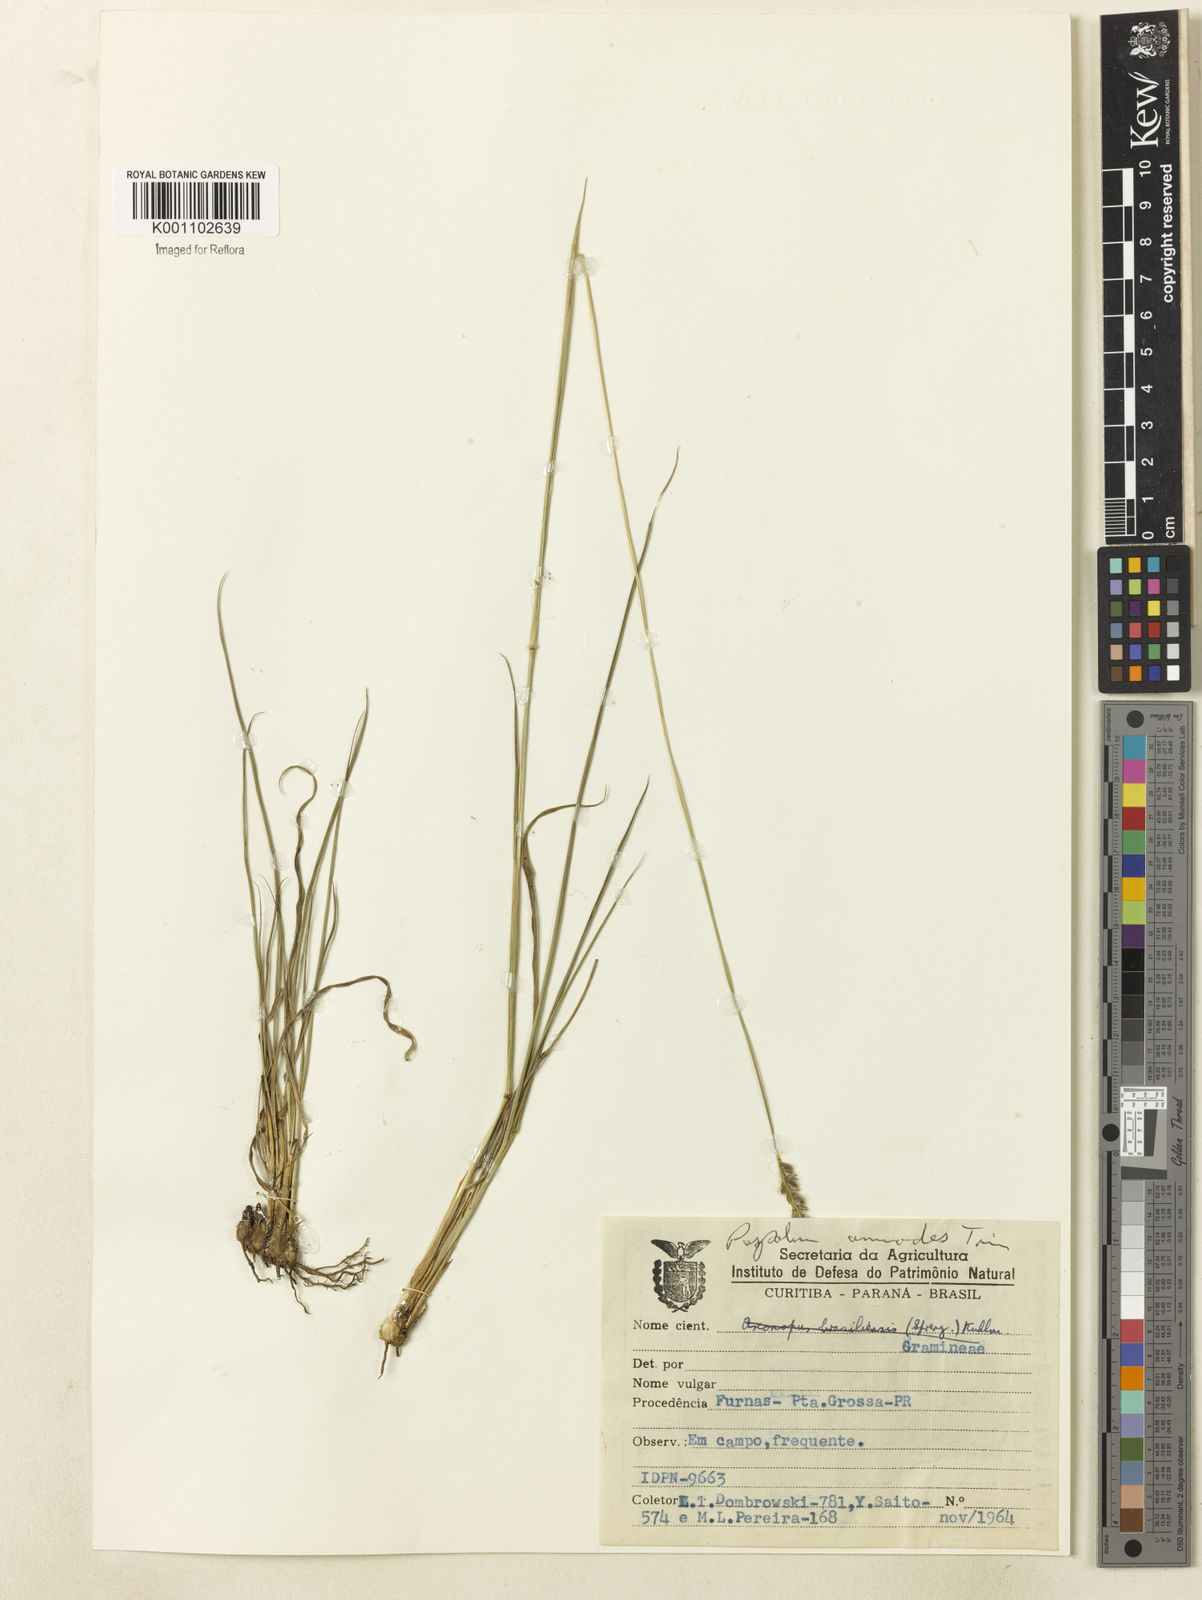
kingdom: Plantae
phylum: Tracheophyta
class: Liliopsida
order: Poales
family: Poaceae
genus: Paspalum
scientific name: Paspalum lachneum
